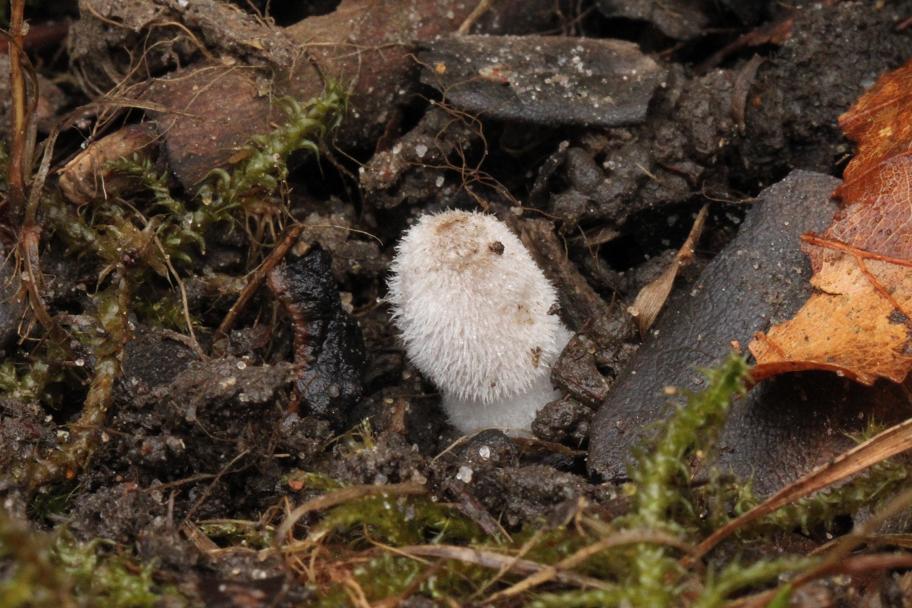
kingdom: Fungi
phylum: Basidiomycota
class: Agaricomycetes
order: Agaricales
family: Psathyrellaceae
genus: Coprinopsis
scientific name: Coprinopsis jonesii
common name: spættet blækhat
